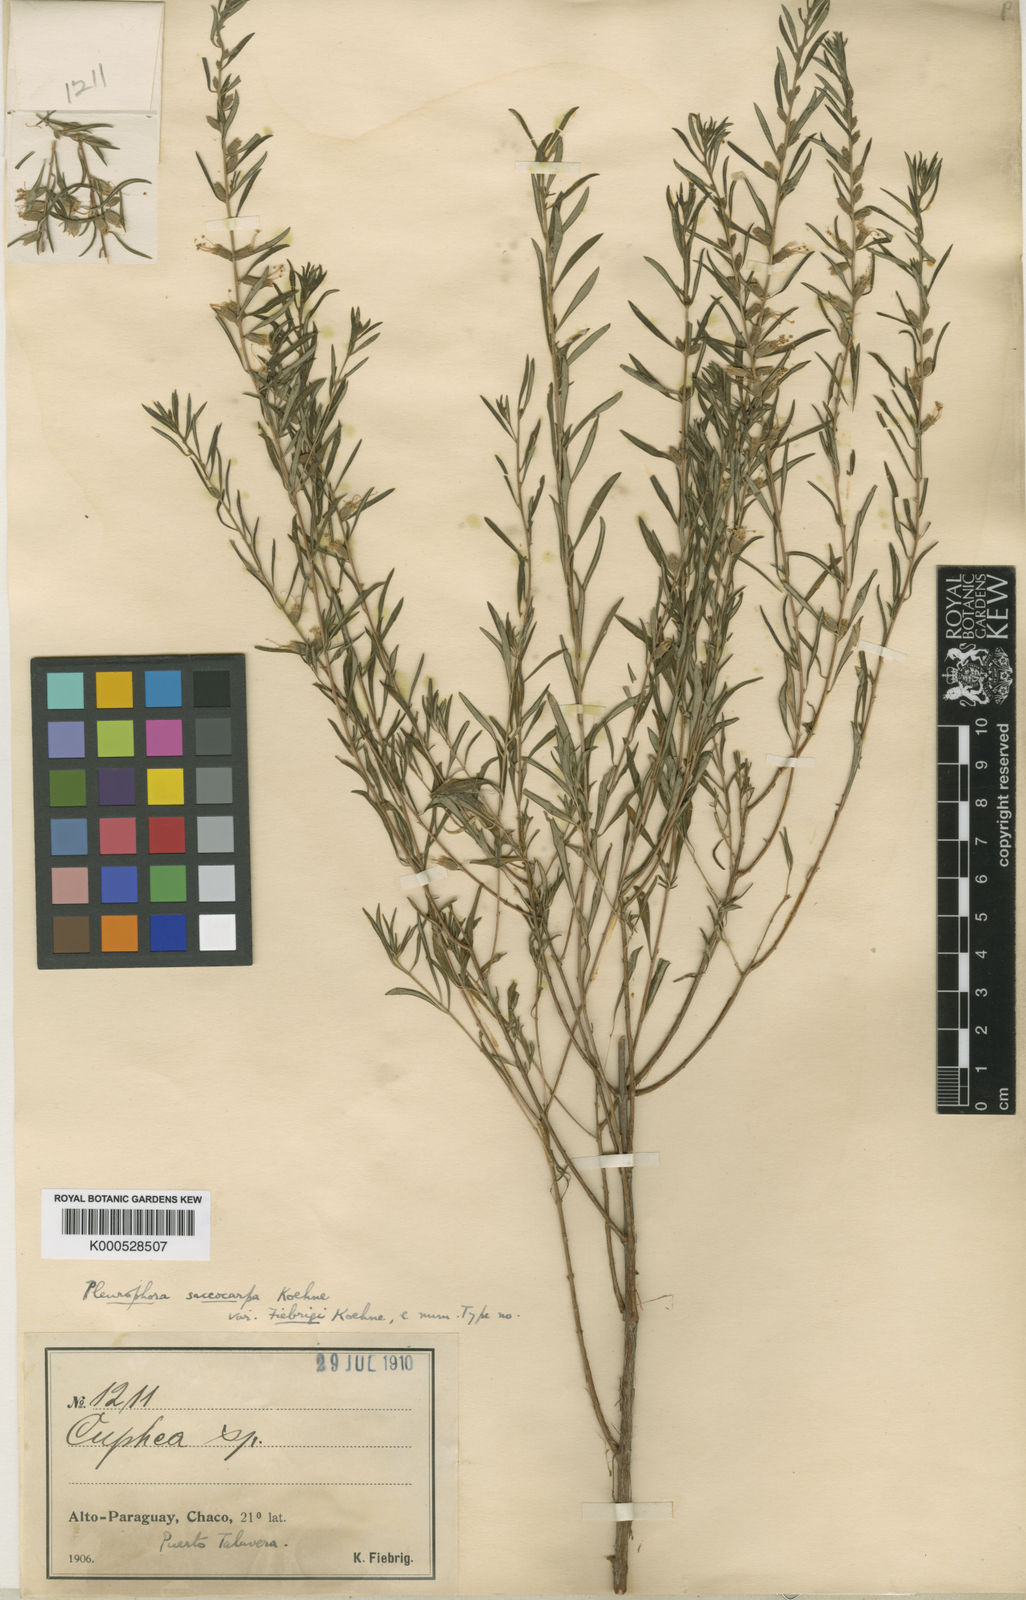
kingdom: Plantae
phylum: Tracheophyta
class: Magnoliopsida
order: Myrtales
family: Lythraceae
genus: Pleurophora
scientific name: Pleurophora saccocarpa
